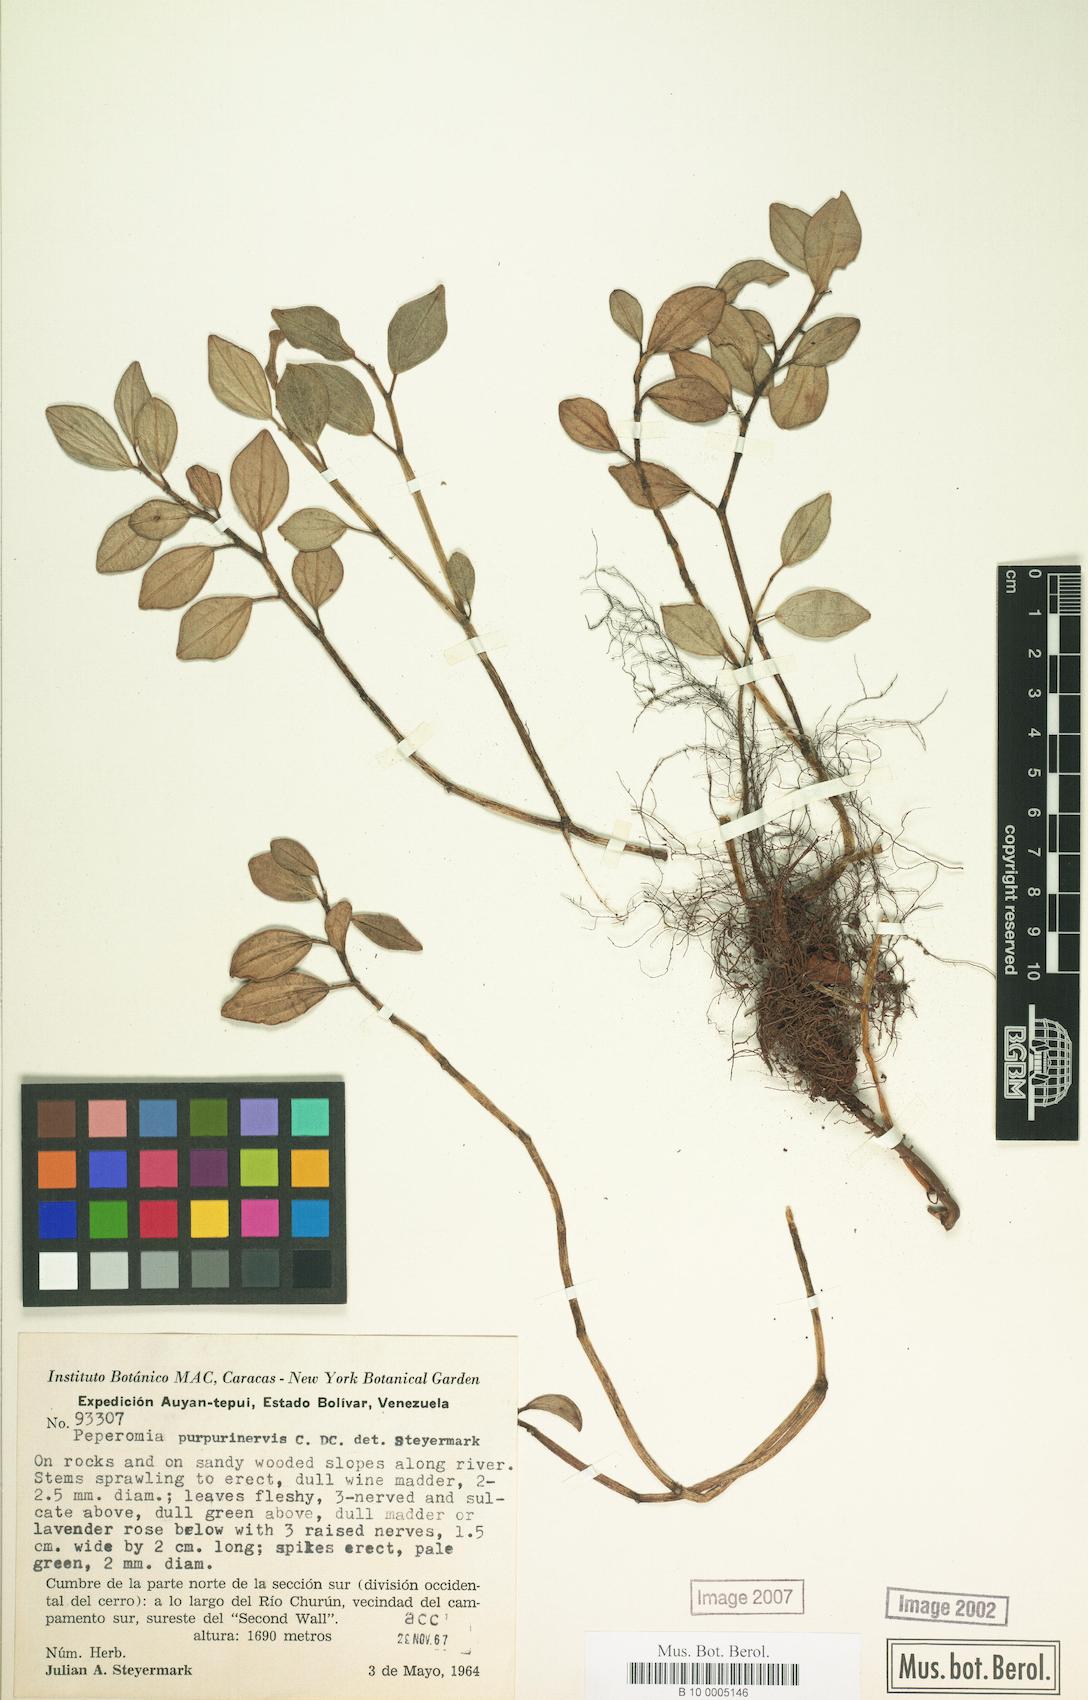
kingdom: Plantae
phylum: Tracheophyta
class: Magnoliopsida
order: Piperales
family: Piperaceae
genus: Peperomia
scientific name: Peperomia purpurinervis
